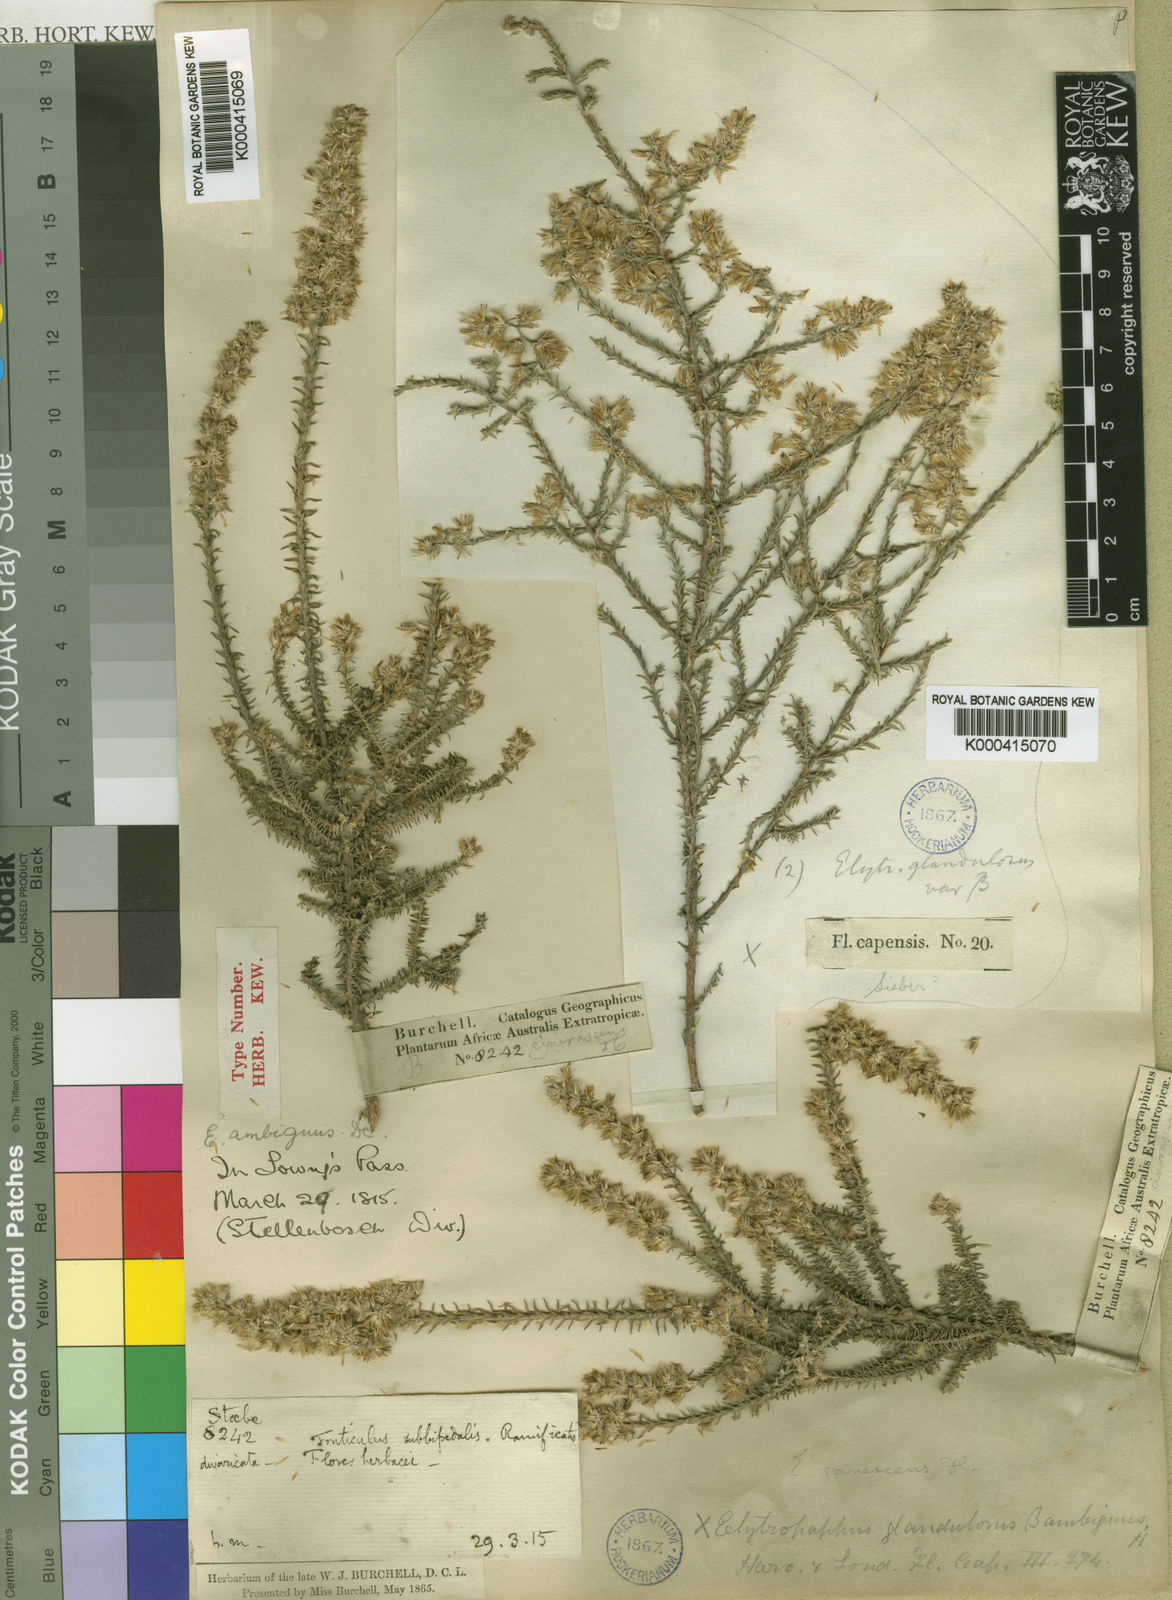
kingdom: Plantae
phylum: Tracheophyta
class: Magnoliopsida
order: Asterales
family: Asteraceae
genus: Myrovernix
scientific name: Myrovernix gnaphaloides
